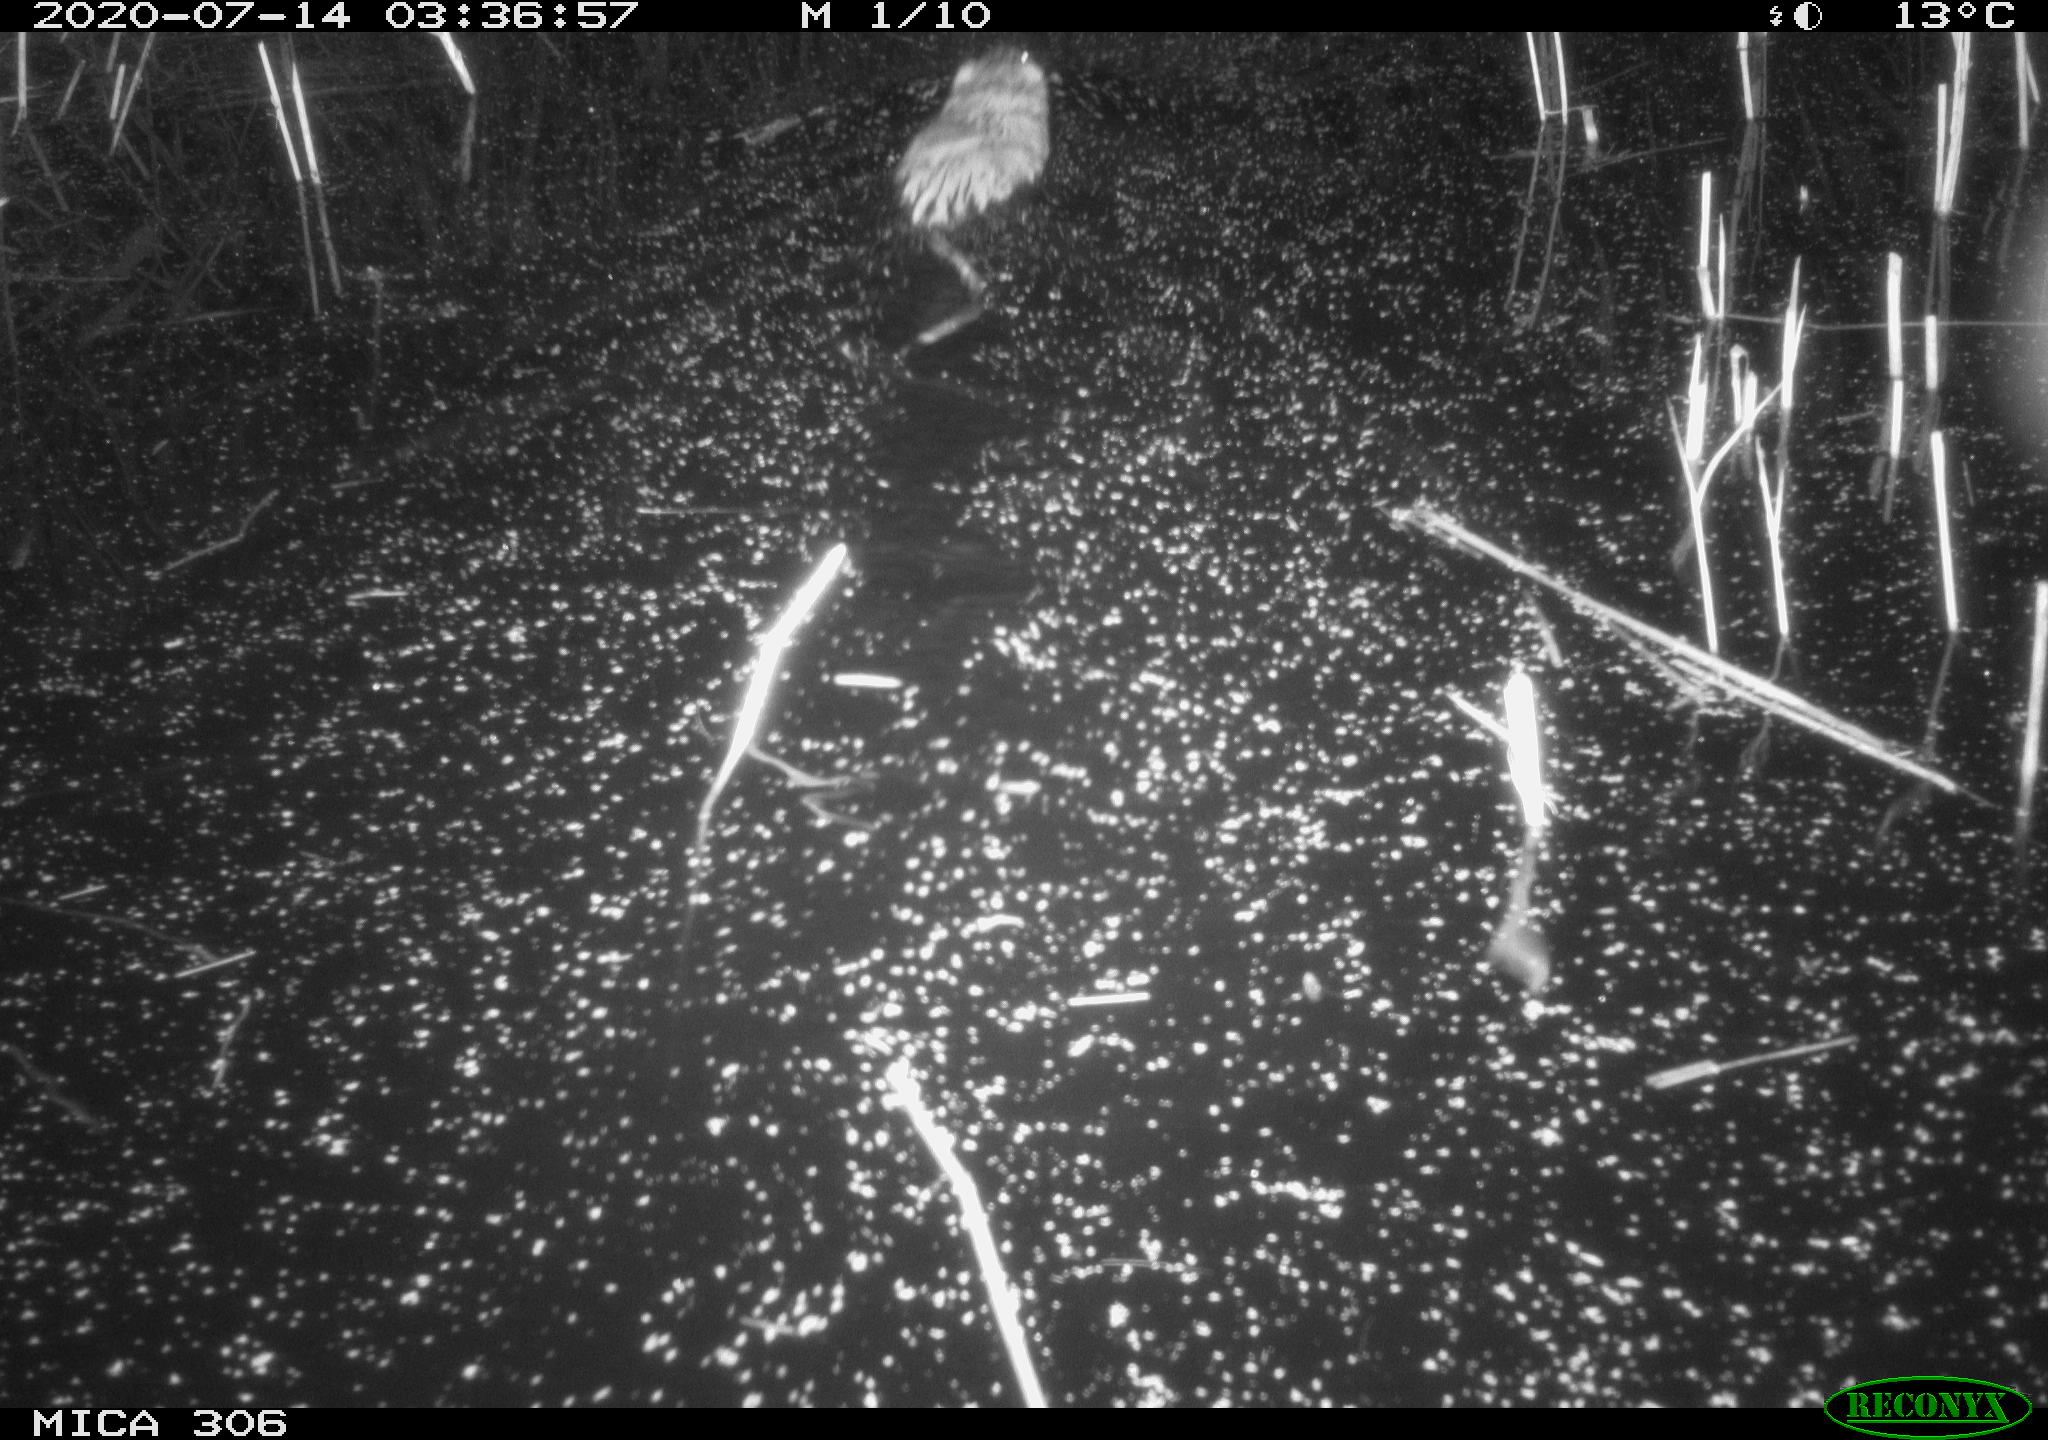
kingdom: Animalia
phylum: Chordata
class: Mammalia
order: Rodentia
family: Cricetidae
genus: Ondatra
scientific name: Ondatra zibethicus
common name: Muskrat
